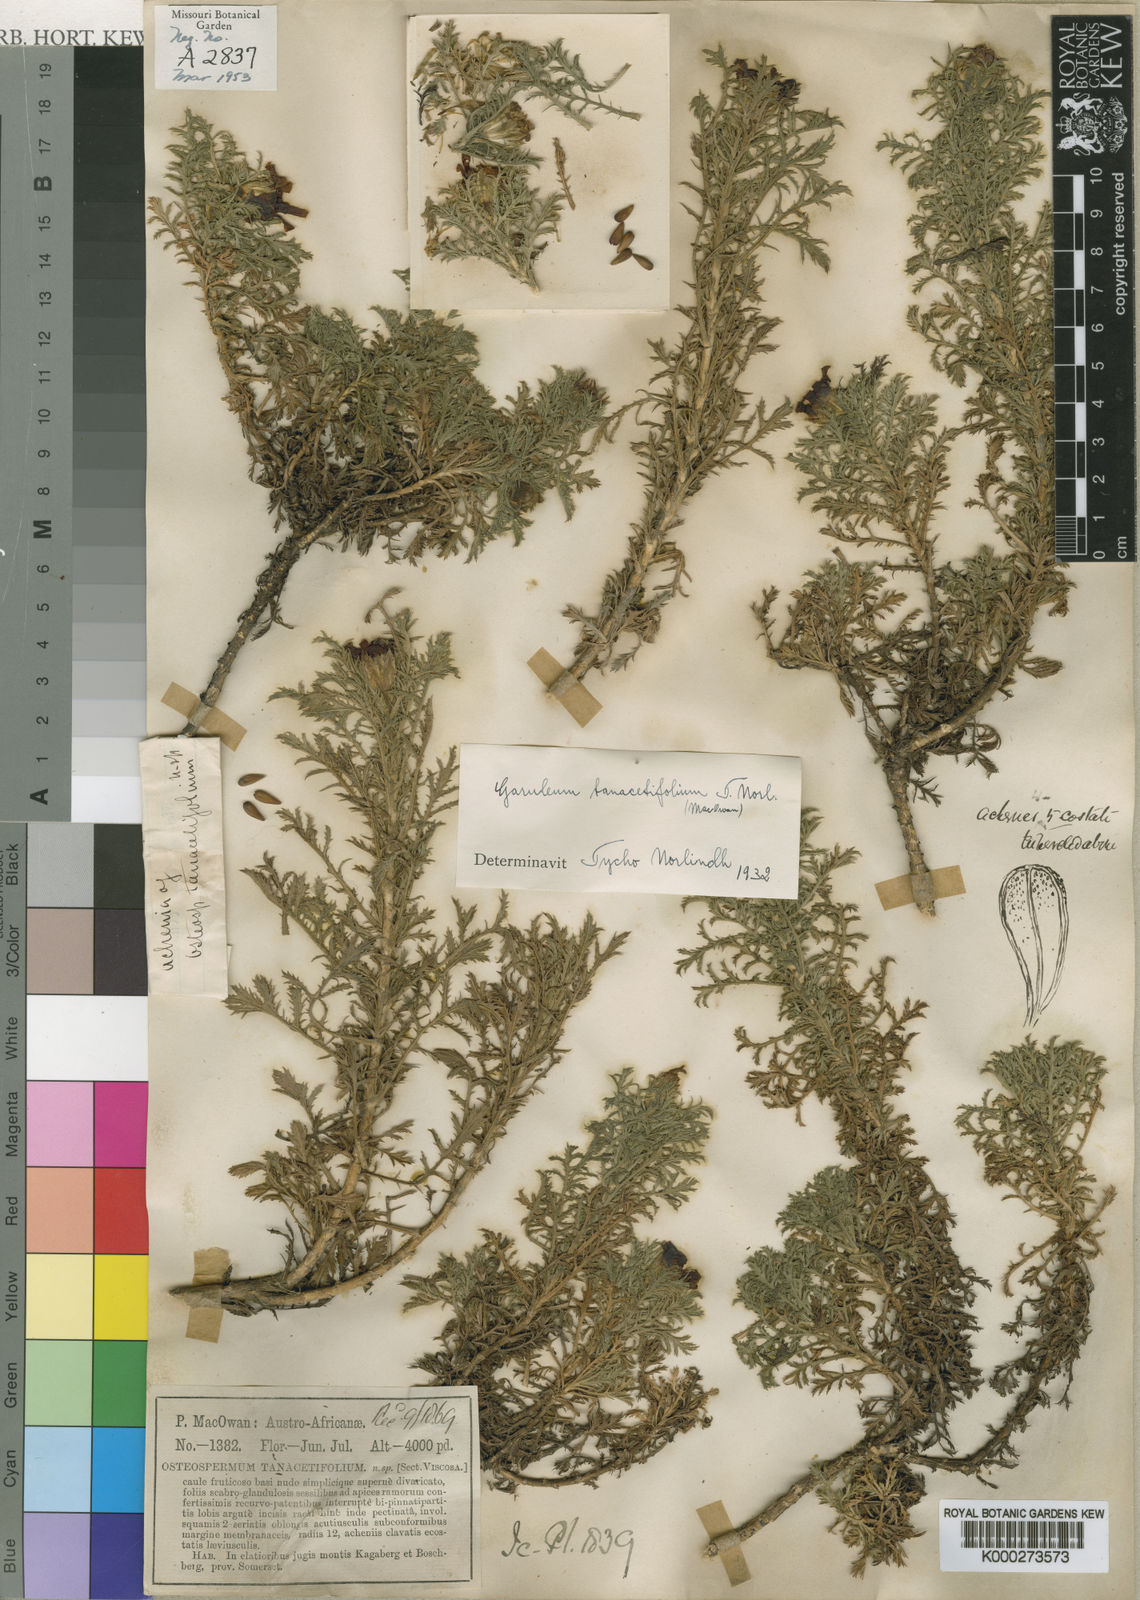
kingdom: Plantae
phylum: Tracheophyta
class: Magnoliopsida
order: Asterales
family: Asteraceae
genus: Garuleum
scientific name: Garuleum tanacetifolium
